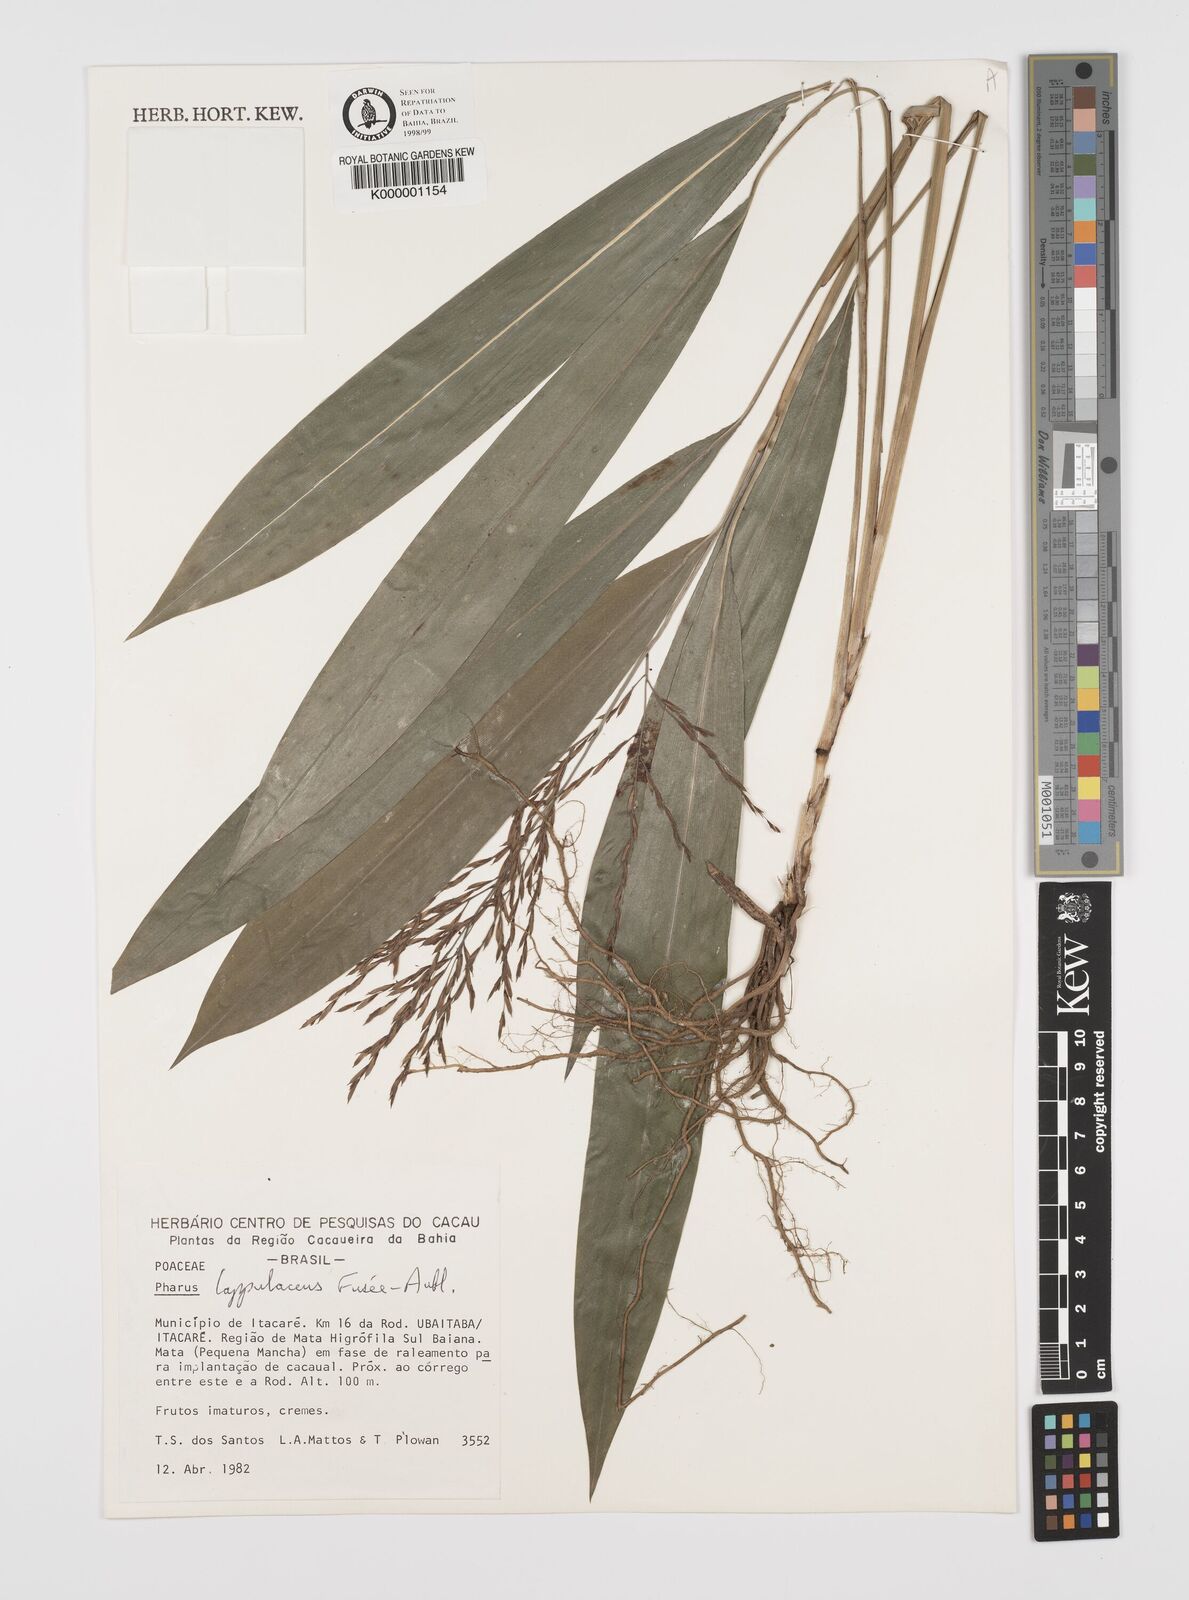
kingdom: Plantae
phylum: Tracheophyta
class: Liliopsida
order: Poales
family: Poaceae
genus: Pharus
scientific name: Pharus lappulaceus
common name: Creeping leafstalk grass
